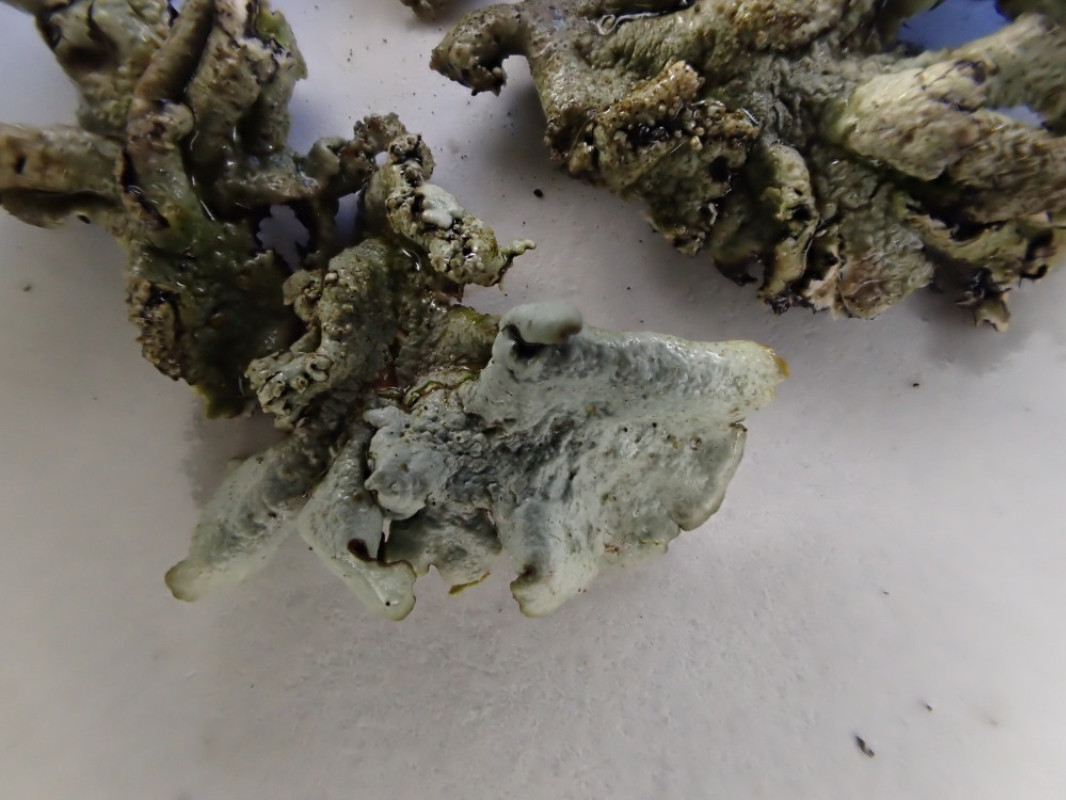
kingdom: Fungi
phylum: Ascomycota
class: Lecanoromycetes
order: Lecanorales
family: Parmeliaceae
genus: Xanthoparmelia
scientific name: Xanthoparmelia conspersa
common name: messing-skållav
